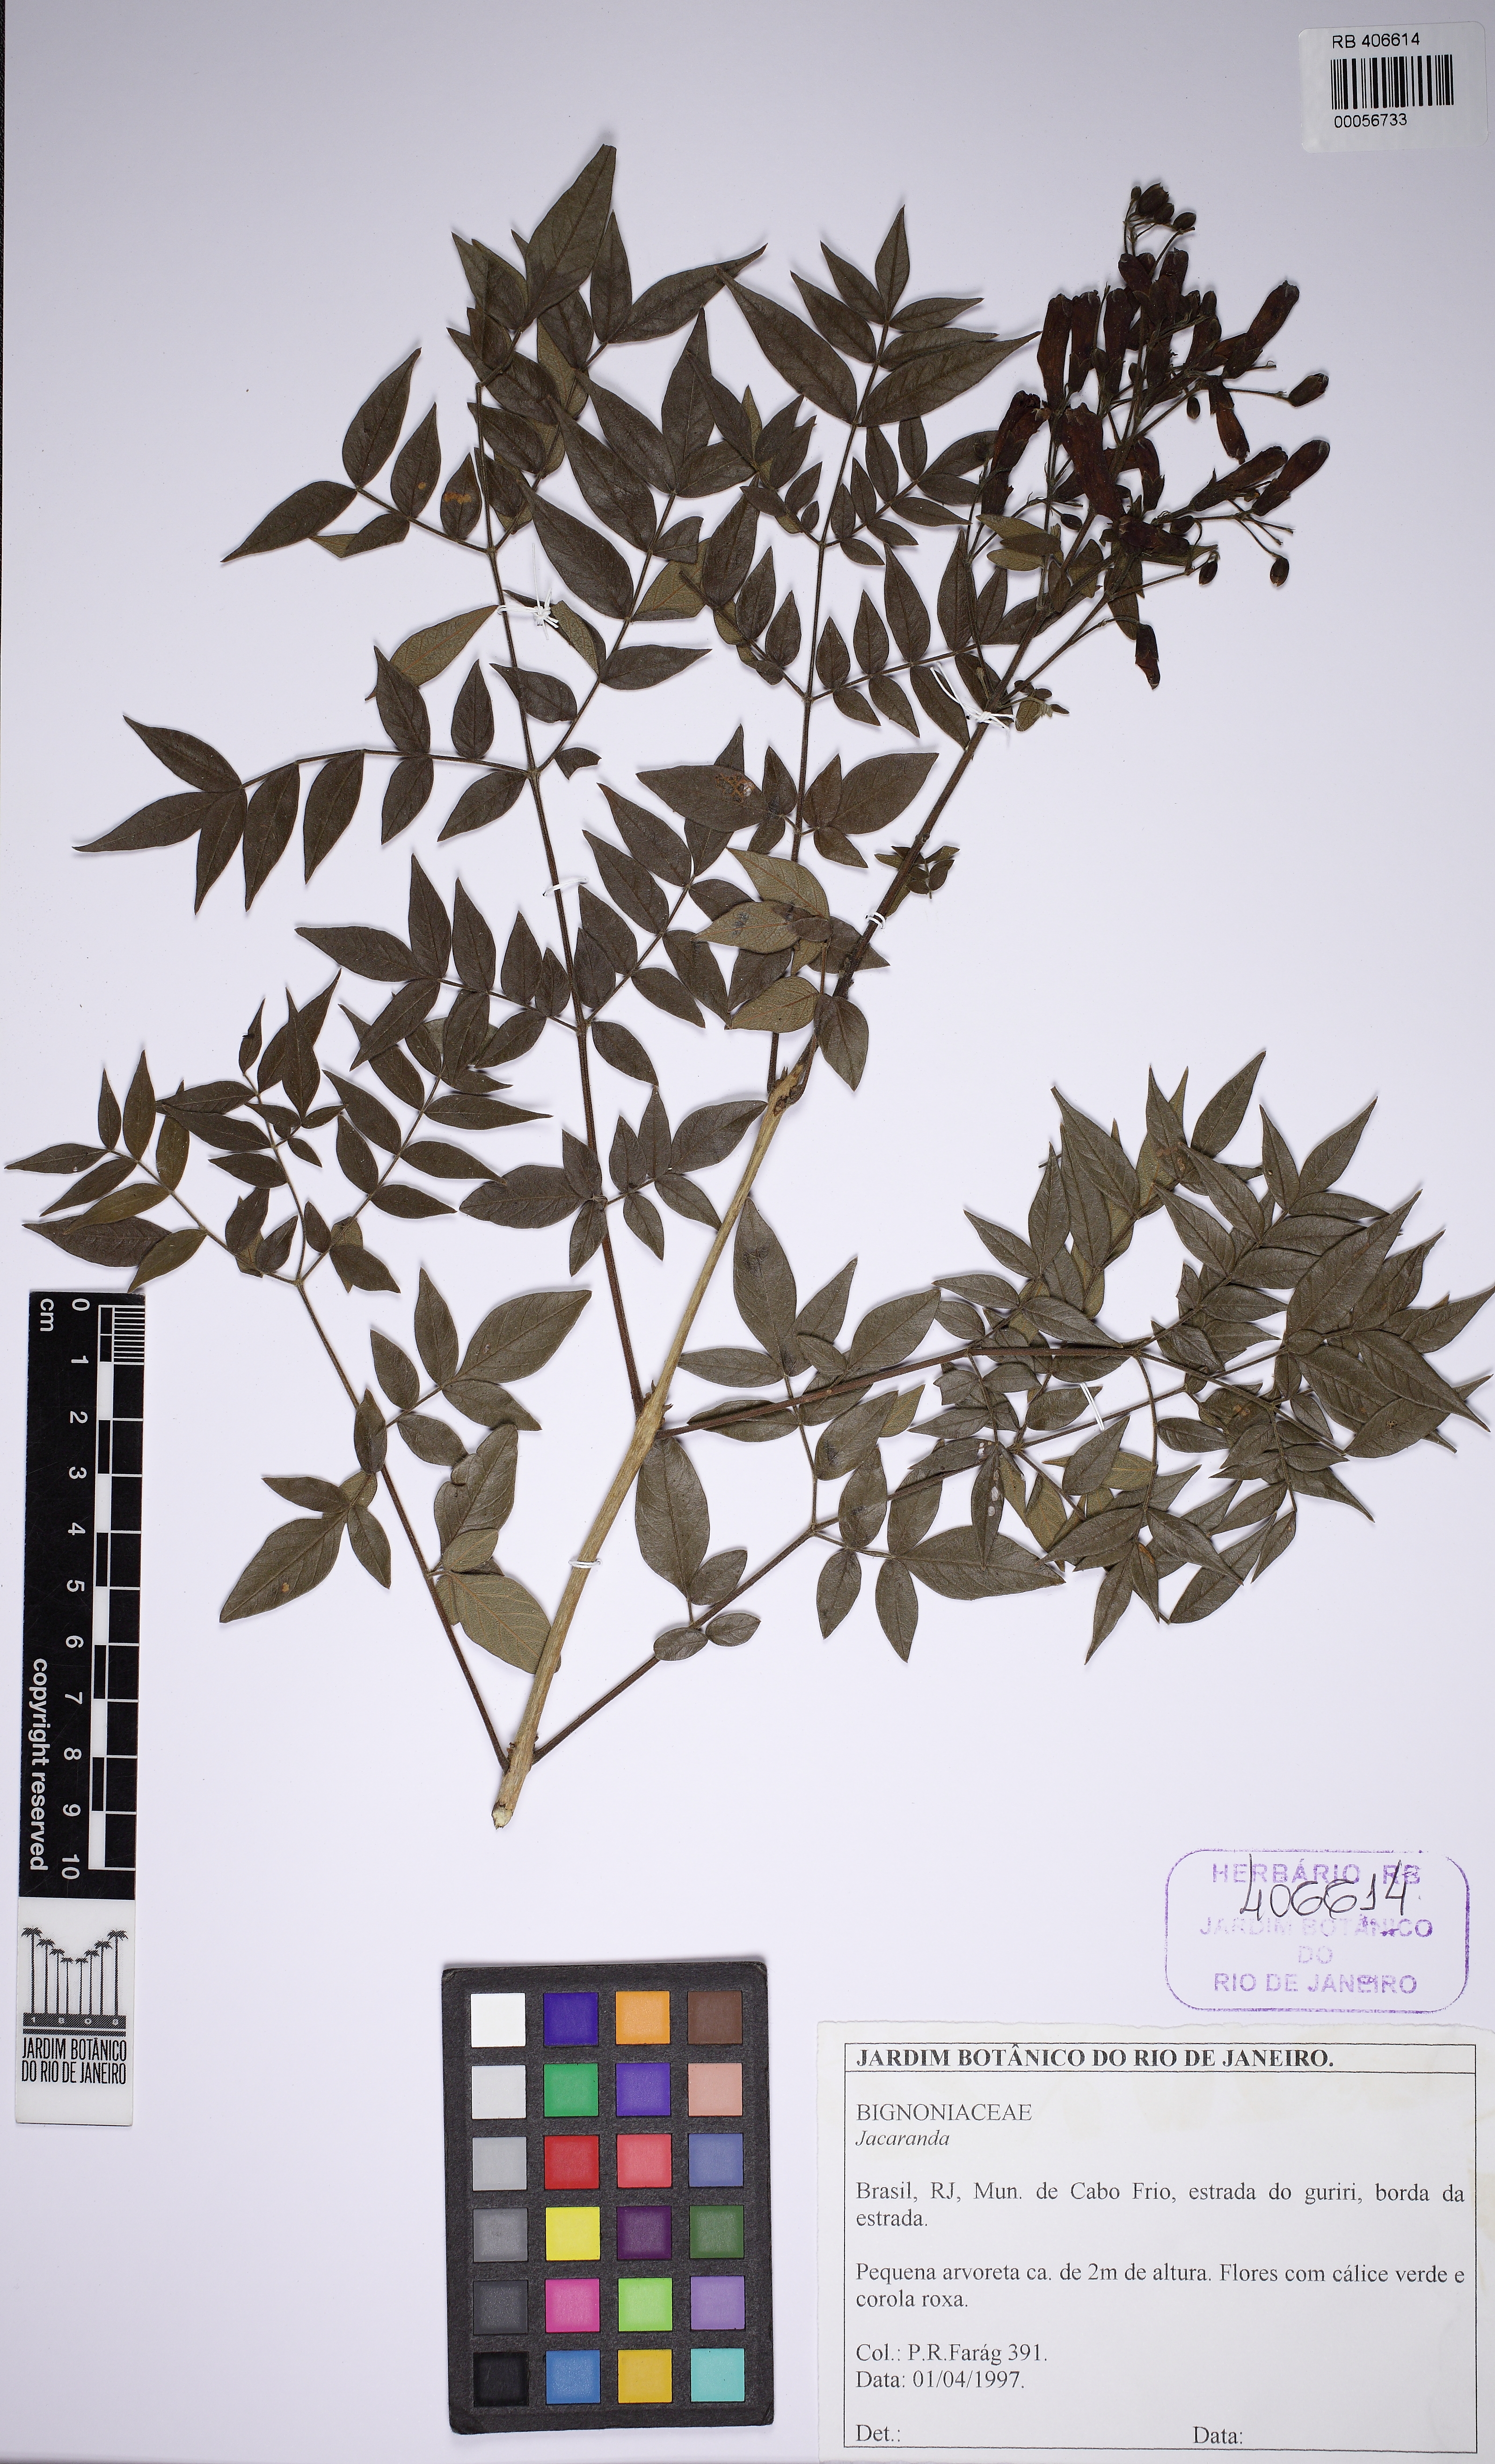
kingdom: Plantae
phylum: Tracheophyta
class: Magnoliopsida
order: Lamiales
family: Bignoniaceae
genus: Jacaranda
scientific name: Jacaranda
